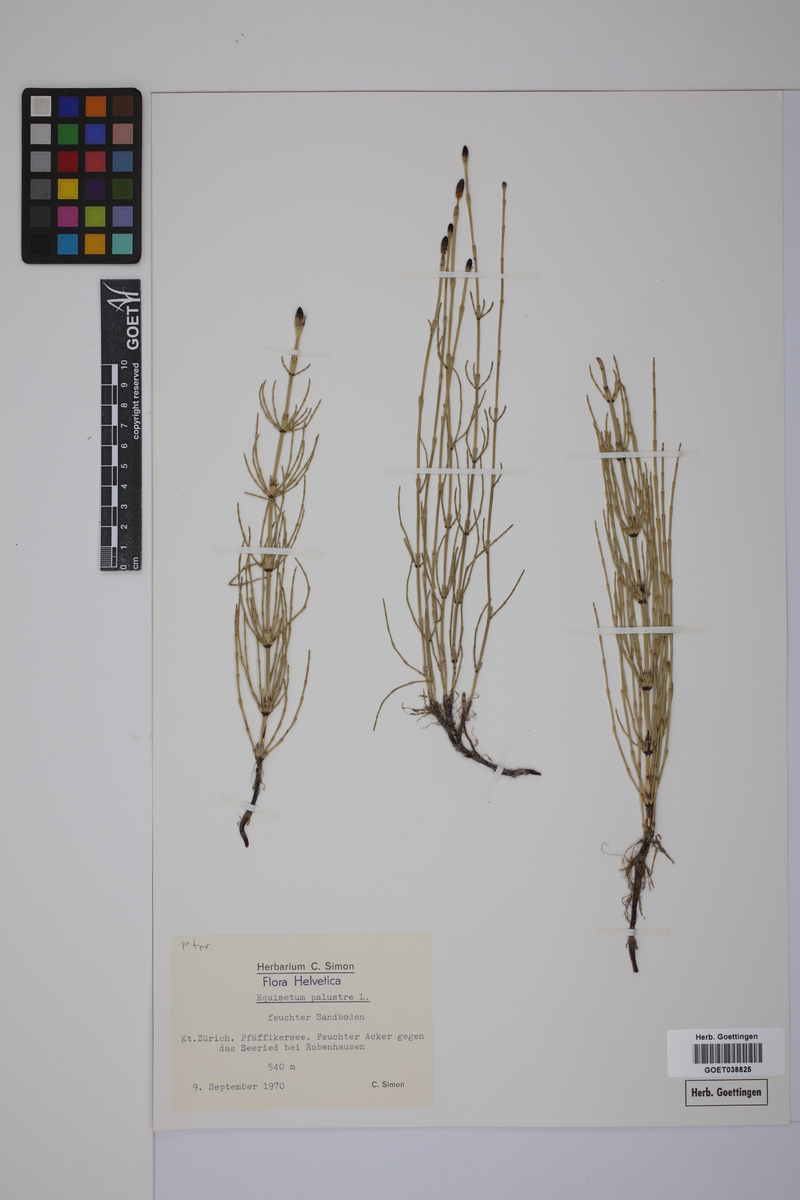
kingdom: Plantae
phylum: Tracheophyta
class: Polypodiopsida
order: Equisetales
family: Equisetaceae
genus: Equisetum
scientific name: Equisetum palustre
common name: Marsh horsetail
